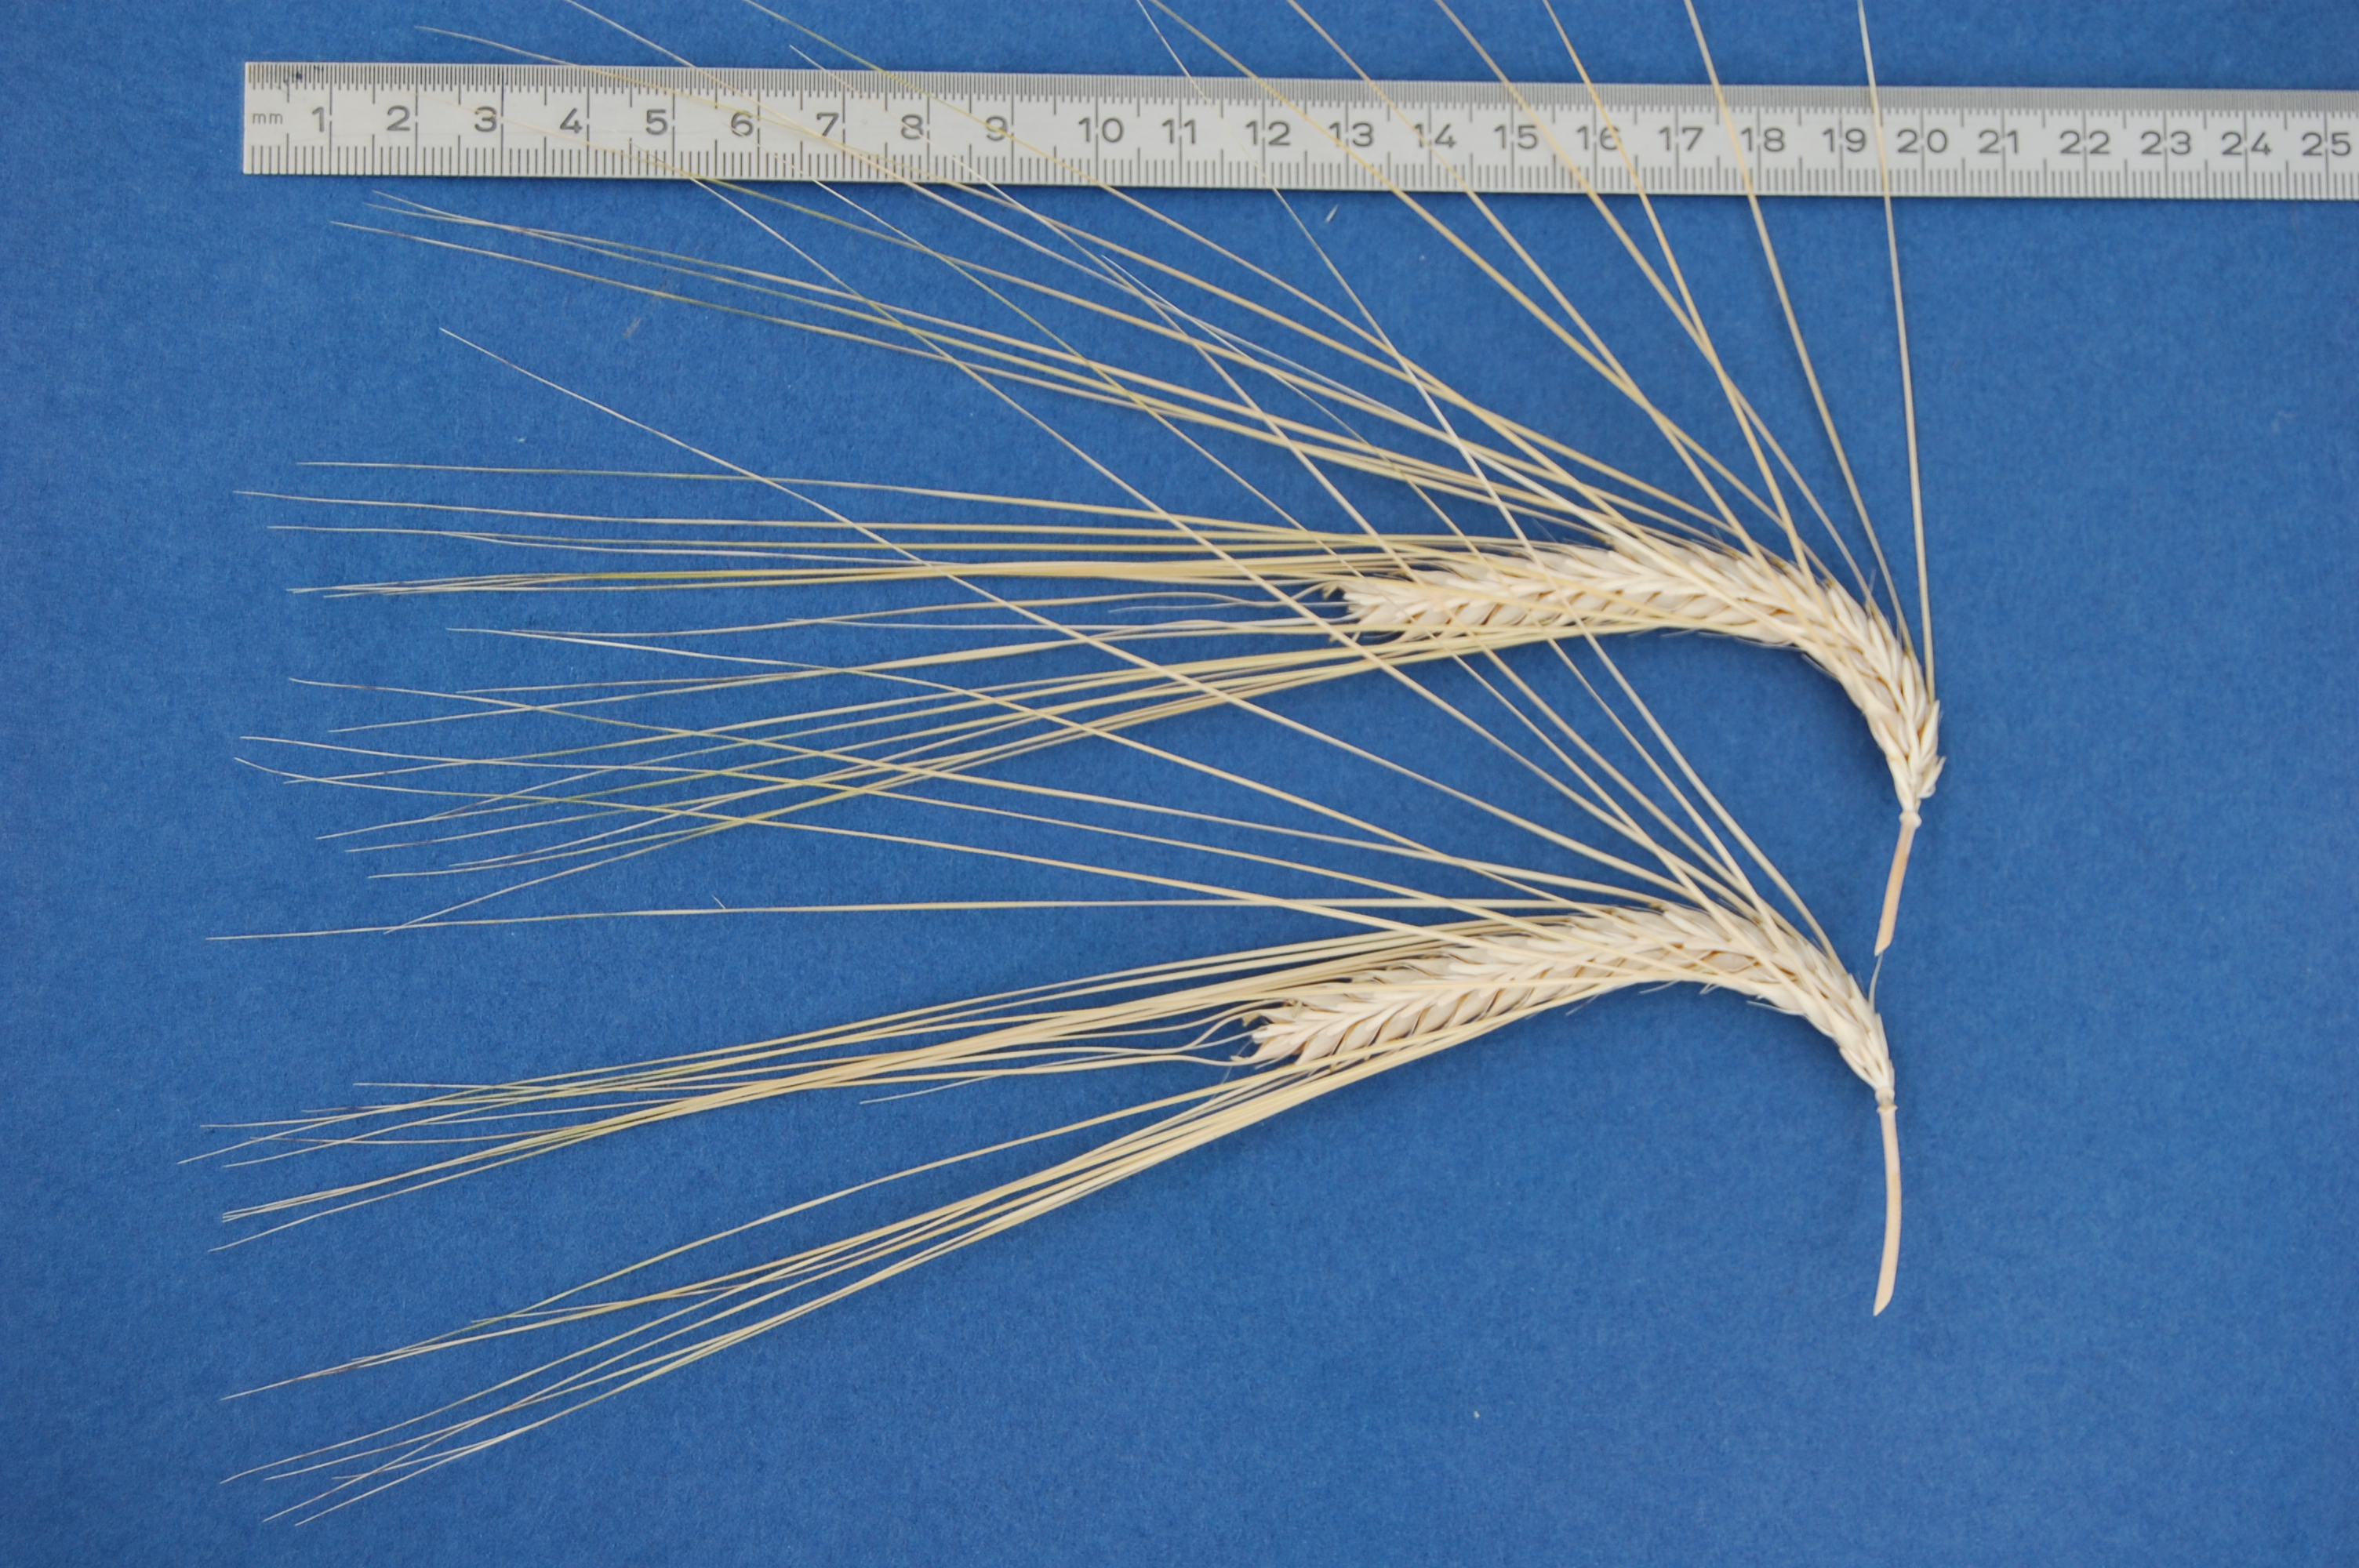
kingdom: Plantae
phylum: Tracheophyta
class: Liliopsida
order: Poales
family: Poaceae
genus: Hordeum
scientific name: Hordeum vulgare
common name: Common barley
